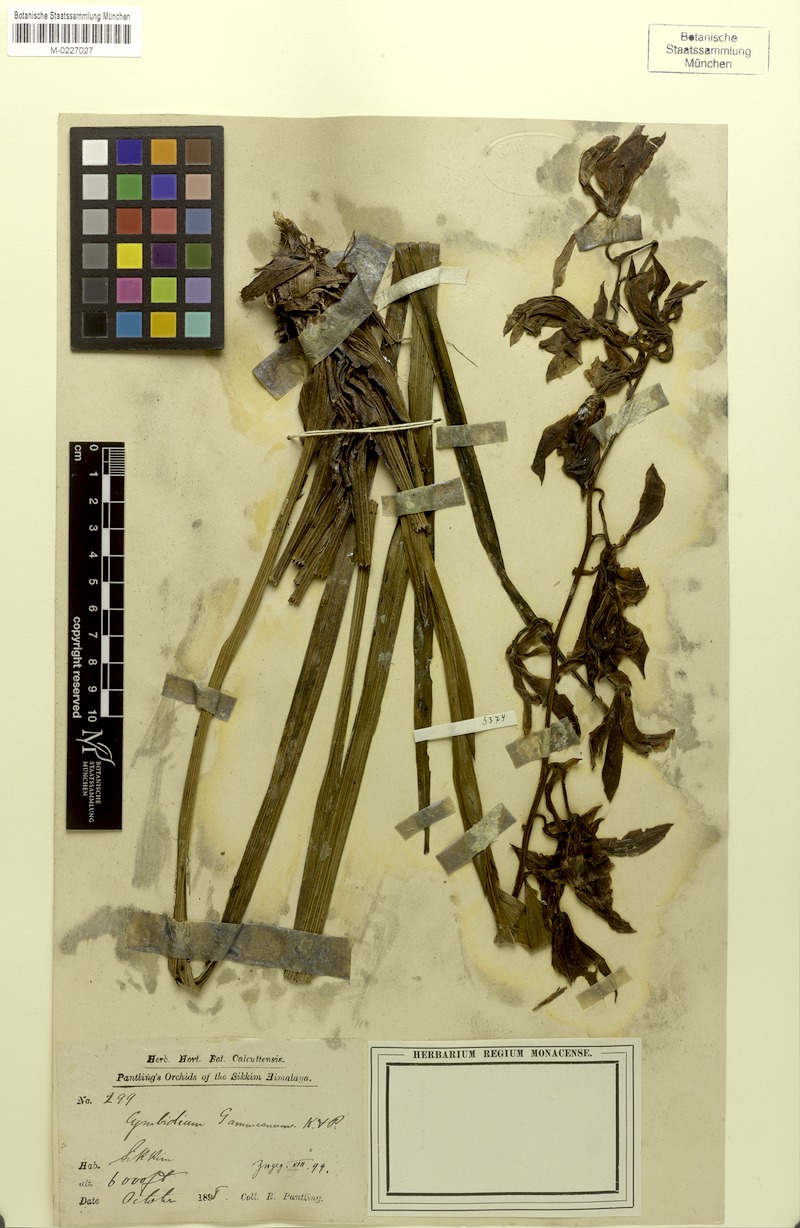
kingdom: Plantae
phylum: Tracheophyta
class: Liliopsida
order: Asparagales
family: Orchidaceae
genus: Cymbidium
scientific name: Cymbidium gammieanum
